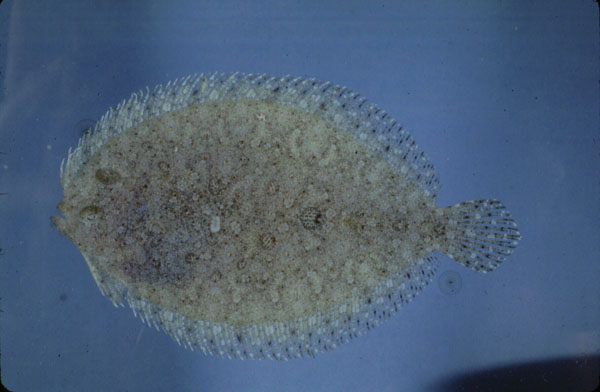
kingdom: Animalia
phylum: Chordata
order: Pleuronectiformes
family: Bothidae
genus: Bothus
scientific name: Bothus pantherinus
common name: Leopard flounder
